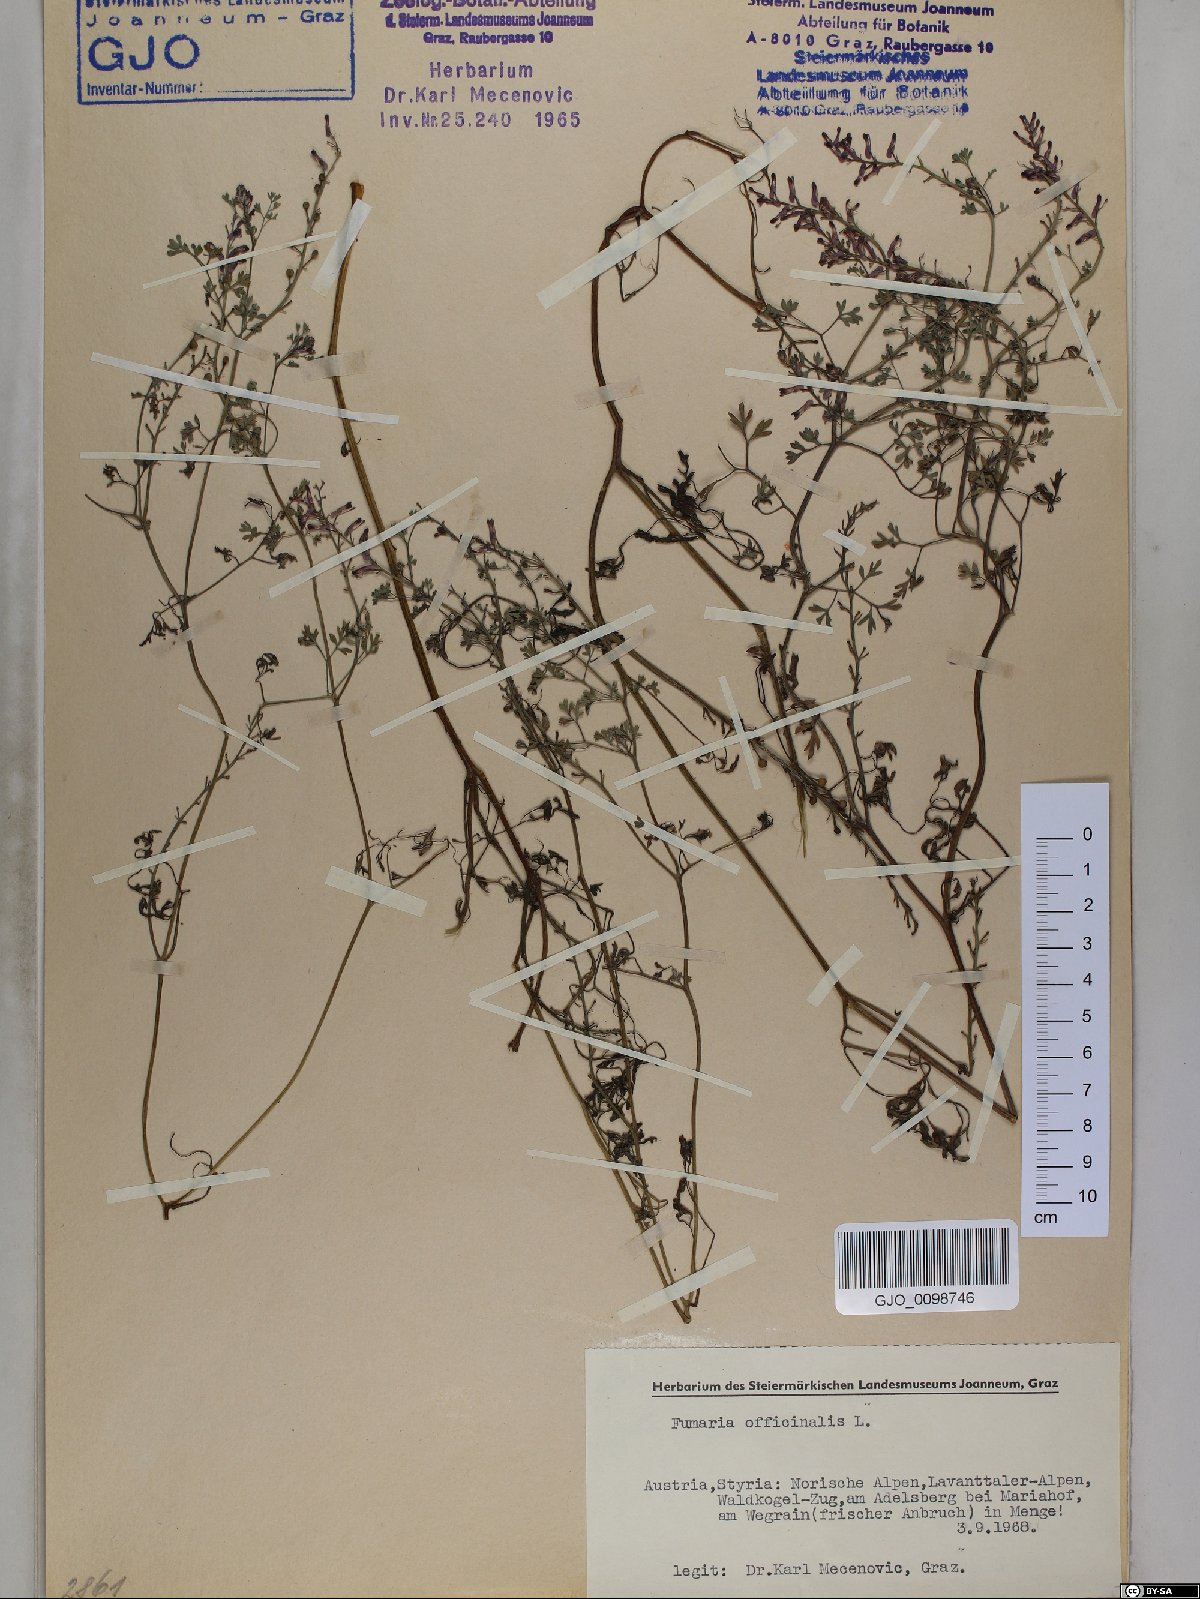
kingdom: Plantae
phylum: Tracheophyta
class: Magnoliopsida
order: Ranunculales
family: Papaveraceae
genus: Fumaria
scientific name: Fumaria officinalis
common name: Common fumitory
